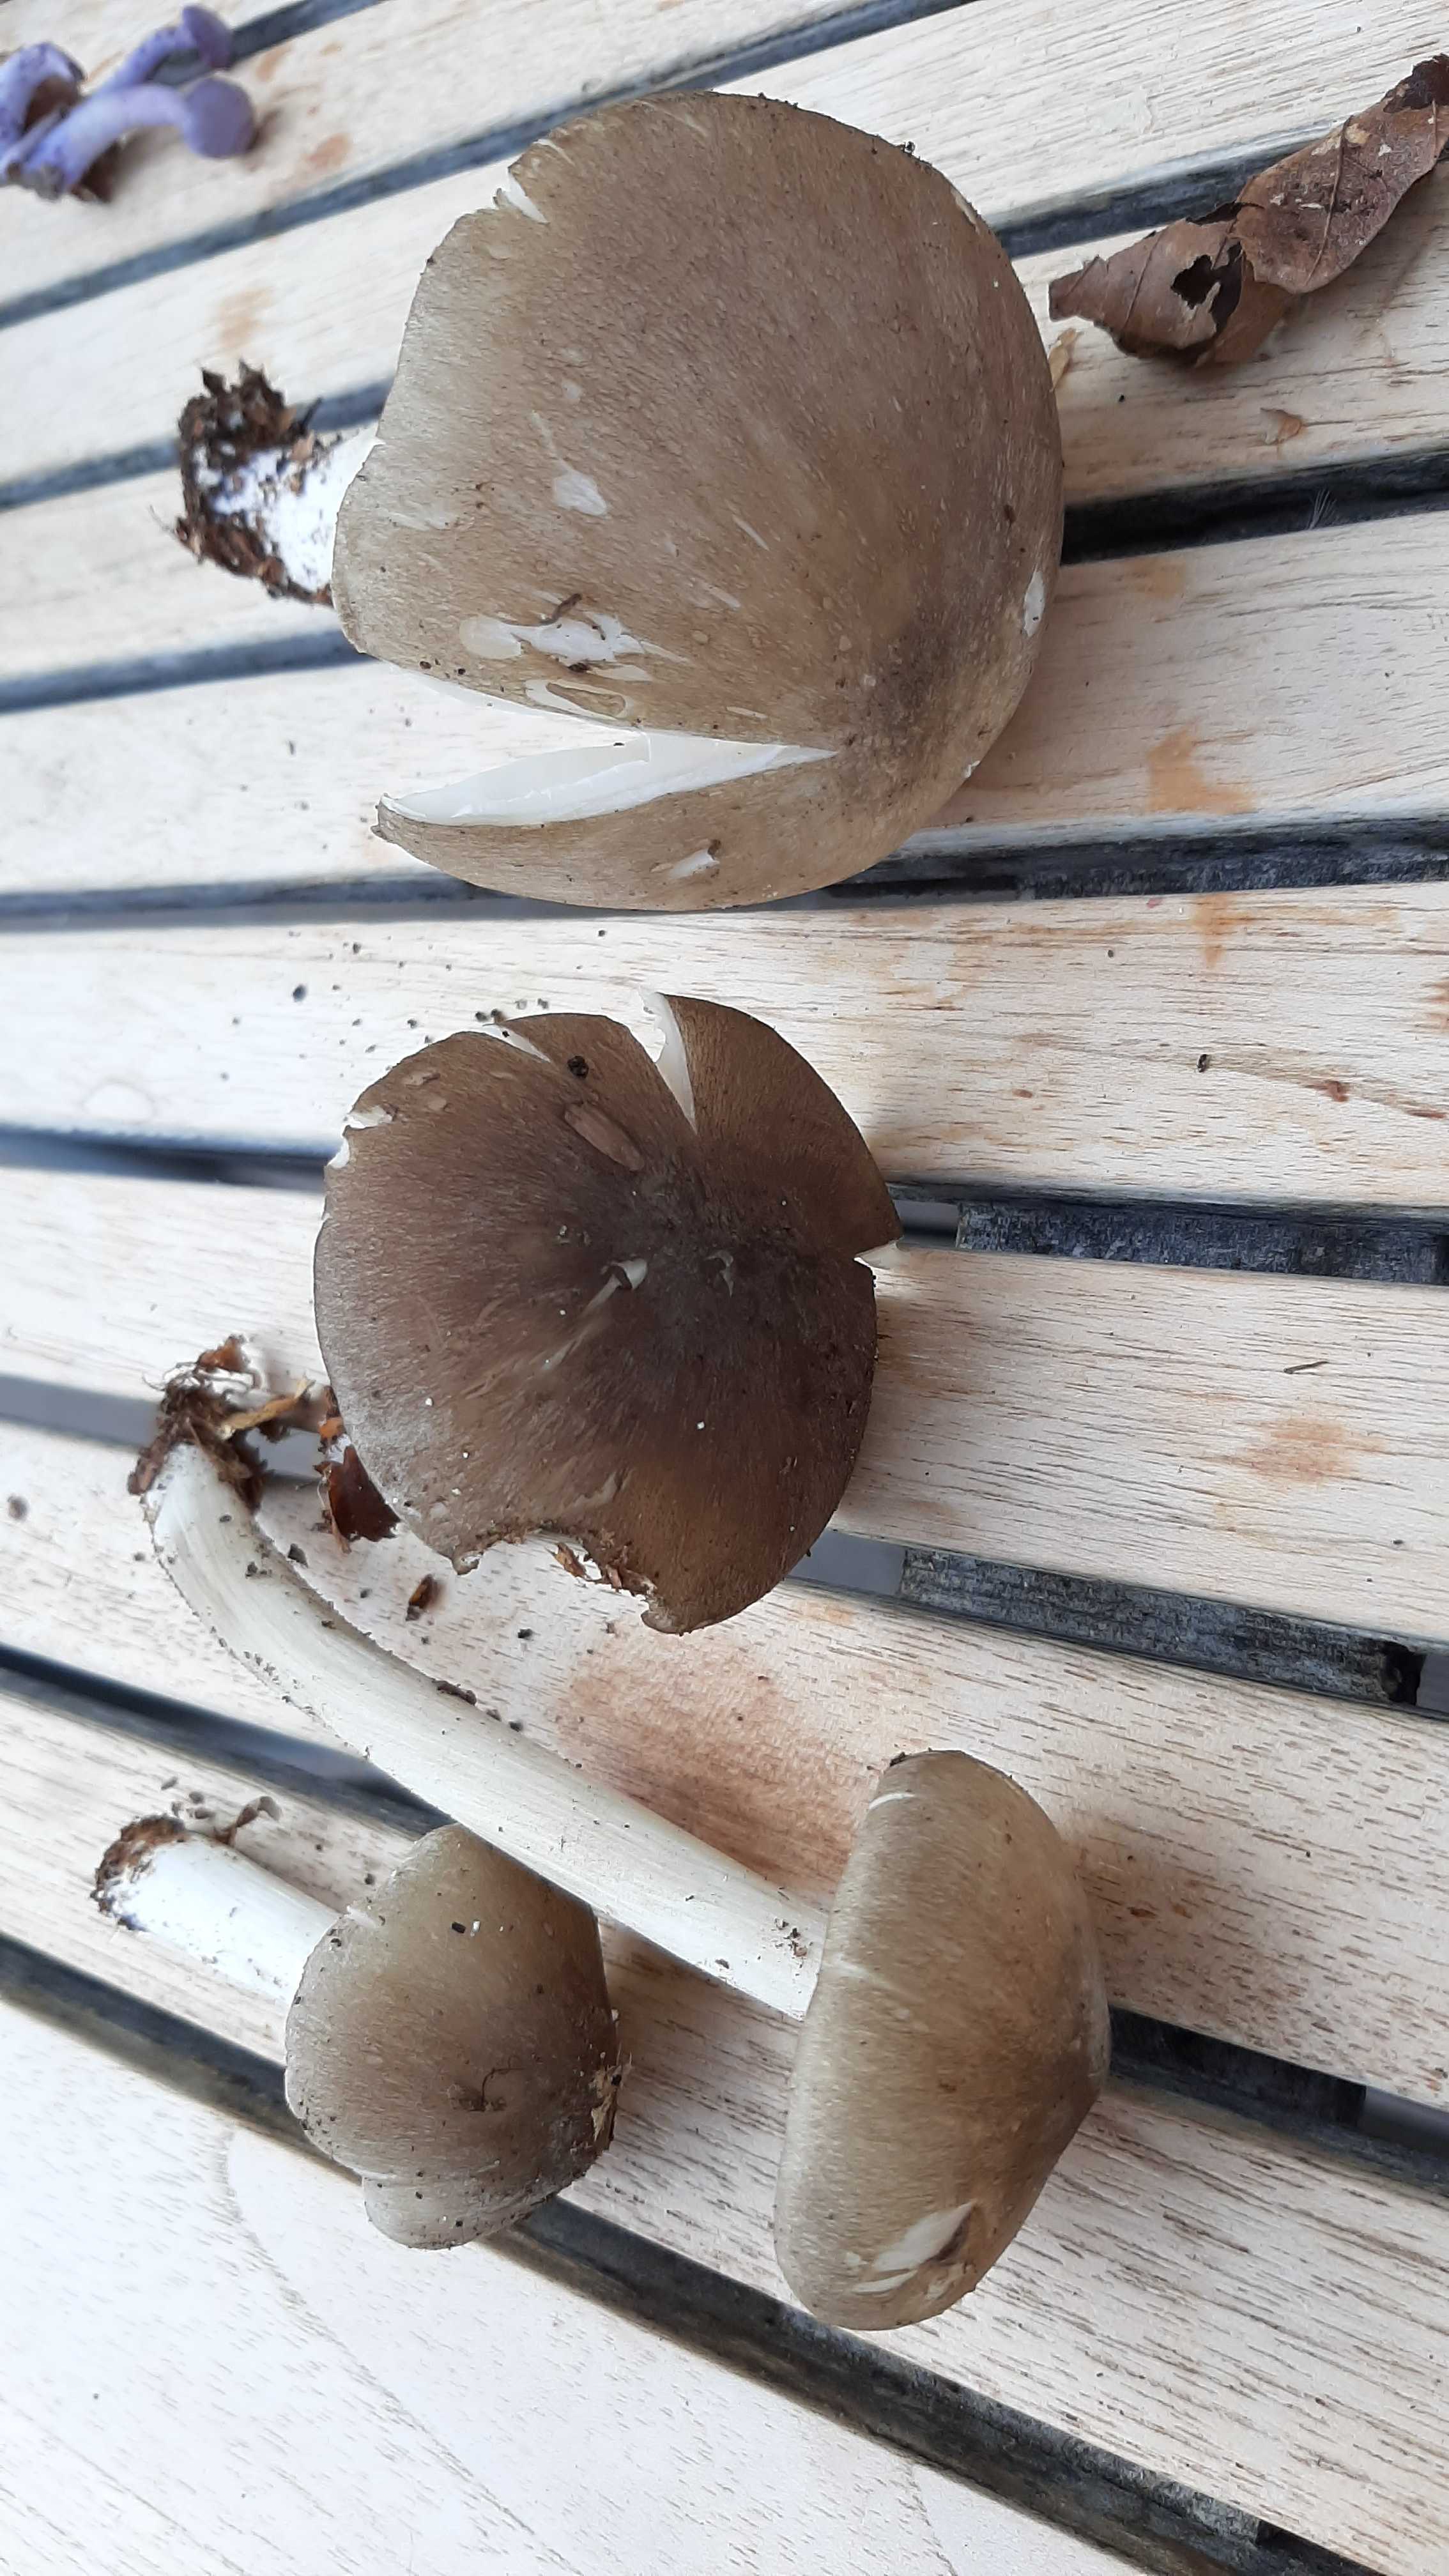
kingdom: Fungi
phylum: Basidiomycota
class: Agaricomycetes
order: Agaricales
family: Tricholomataceae
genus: Megacollybia
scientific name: Megacollybia platyphylla
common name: bredbladet væbnerhat
